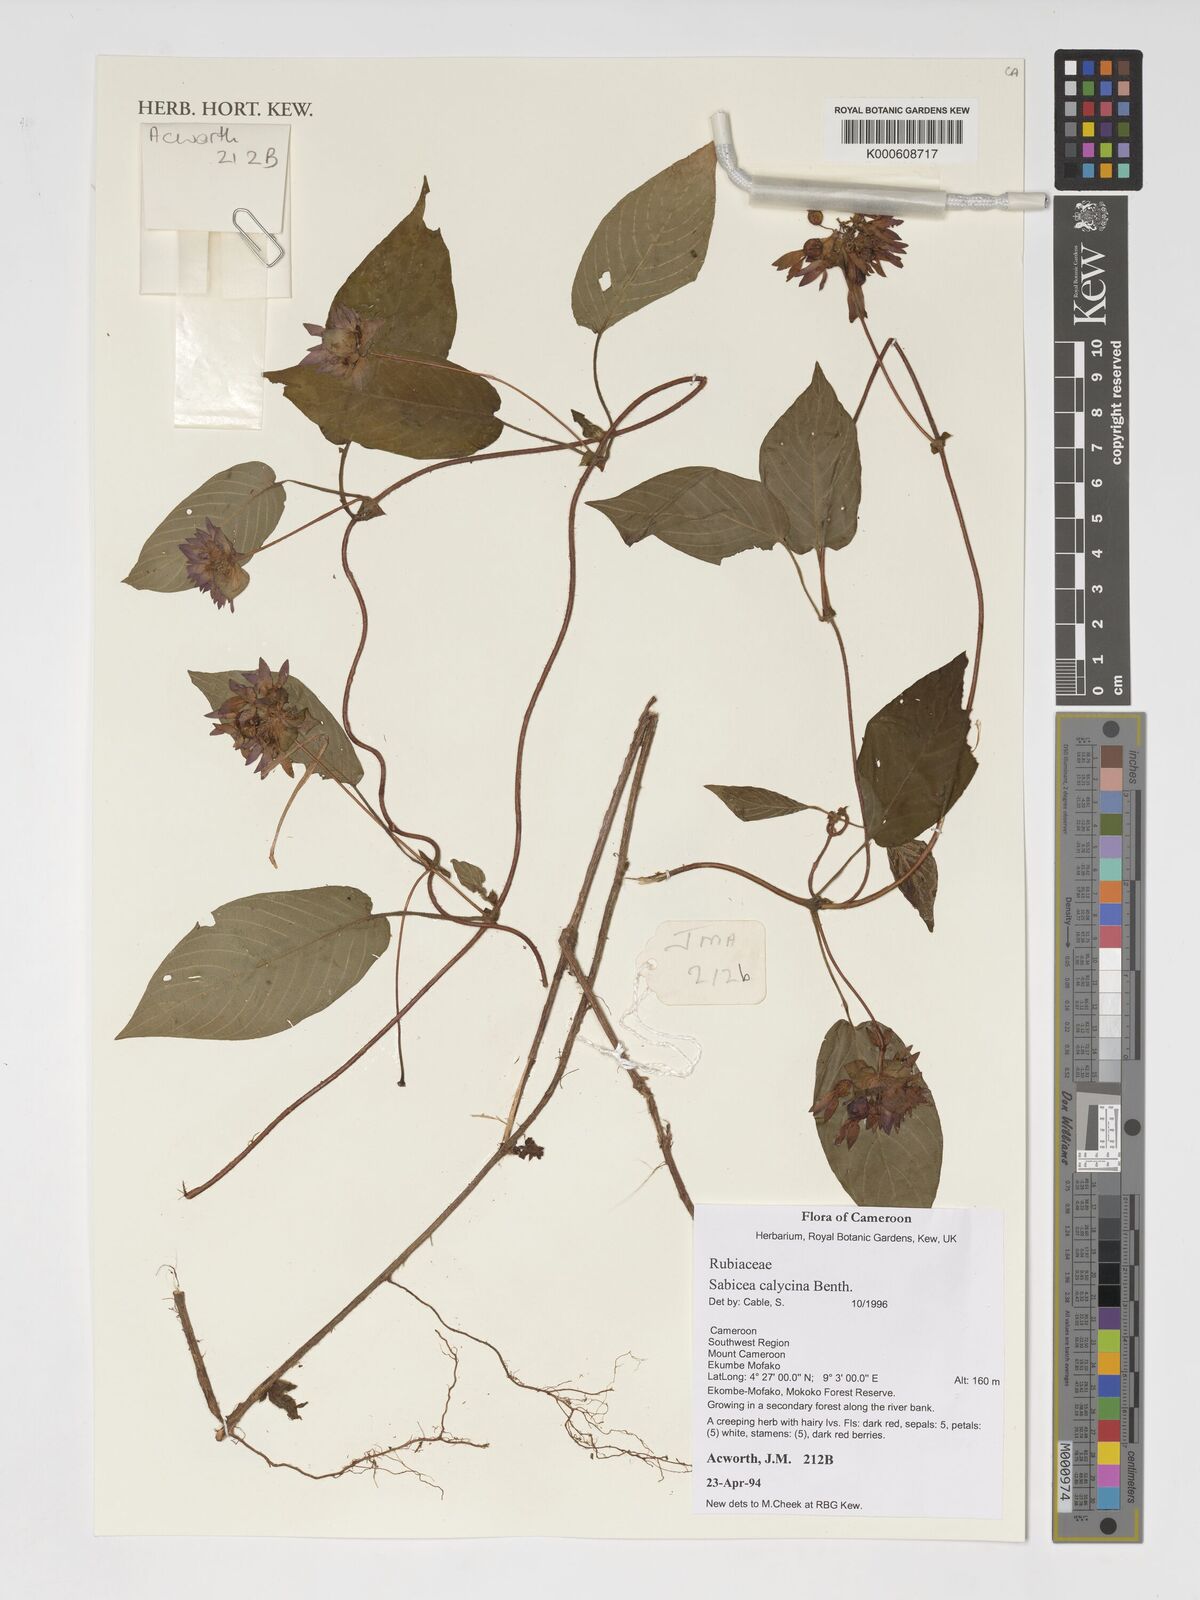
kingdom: Plantae
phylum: Tracheophyta
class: Magnoliopsida
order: Gentianales
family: Rubiaceae
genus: Sabicea
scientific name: Sabicea calycina
